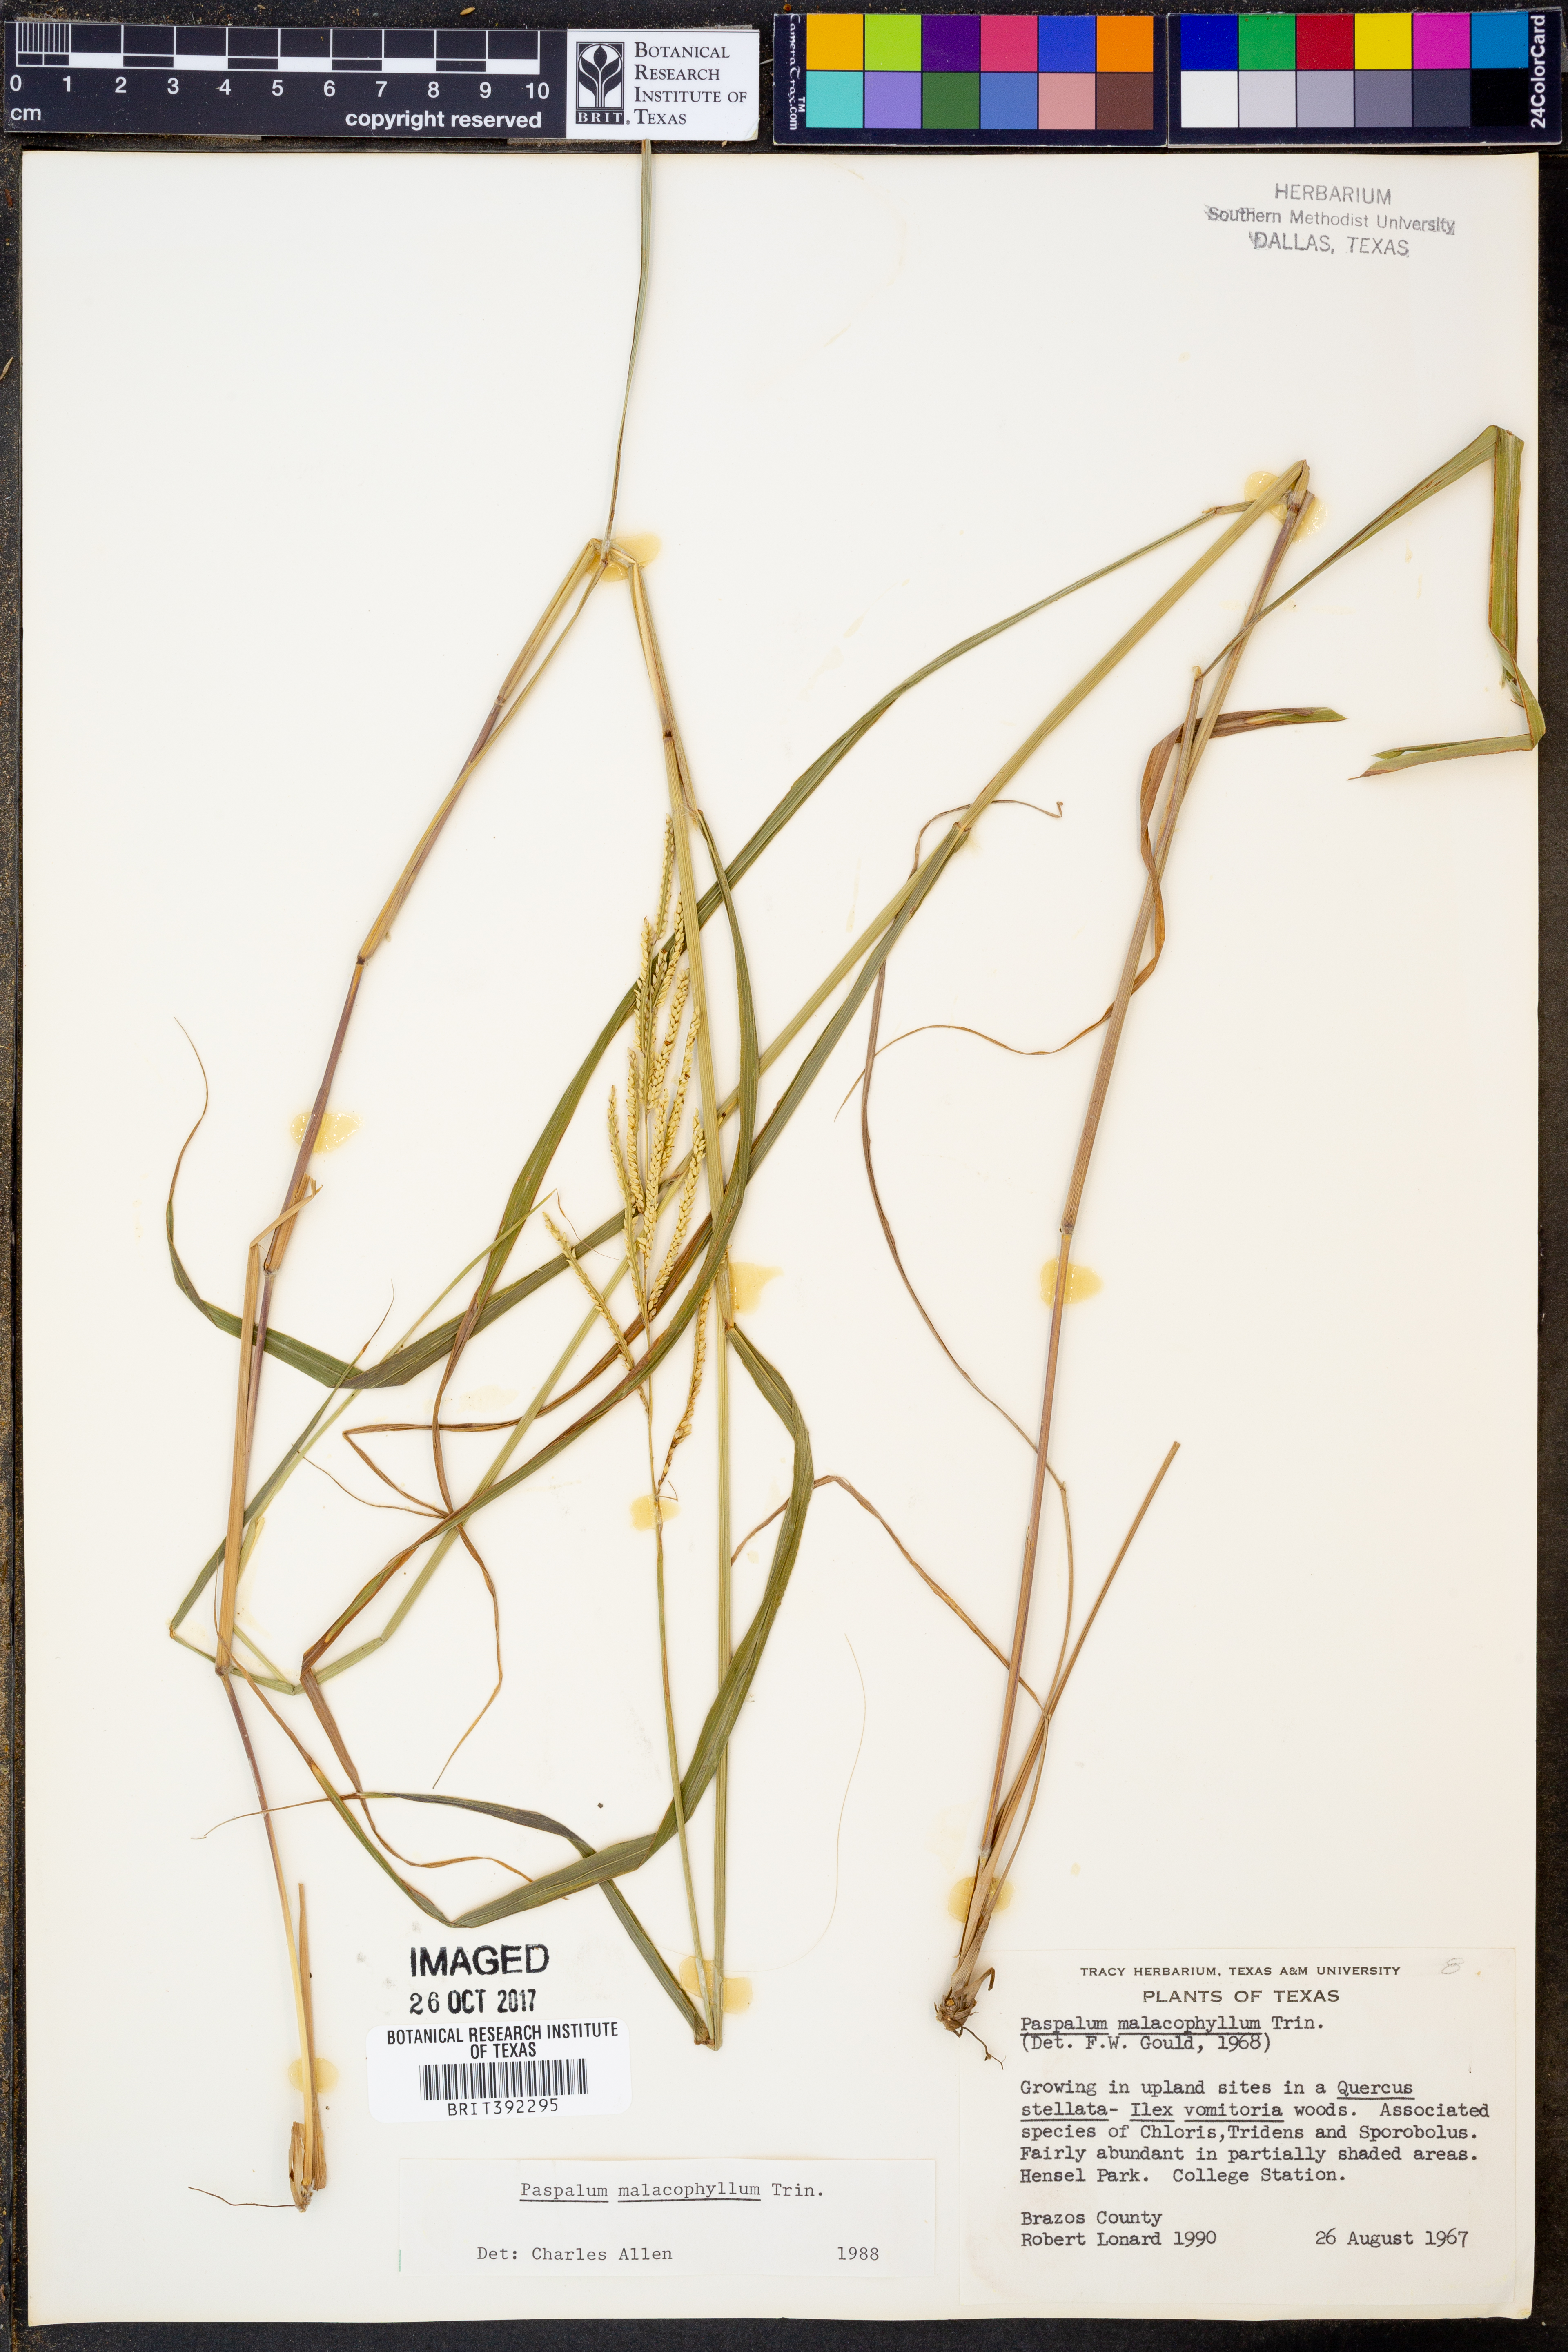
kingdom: Plantae
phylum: Tracheophyta
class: Liliopsida
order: Poales
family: Poaceae
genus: Paspalum
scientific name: Paspalum malacophyllum
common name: Ribbed paspalum
